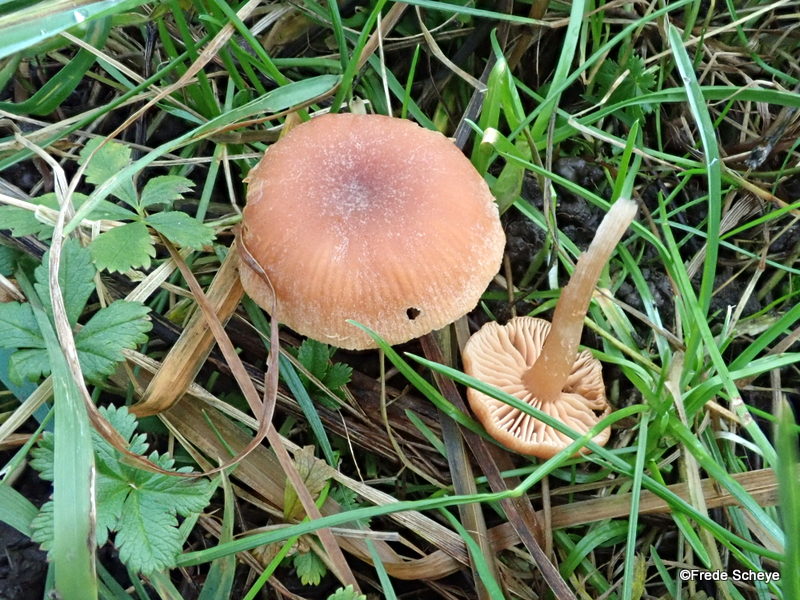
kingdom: Fungi
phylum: Basidiomycota
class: Agaricomycetes
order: Agaricales
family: Tubariaceae
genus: Tubaria
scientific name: Tubaria furfuracea
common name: kliddet fnughat
